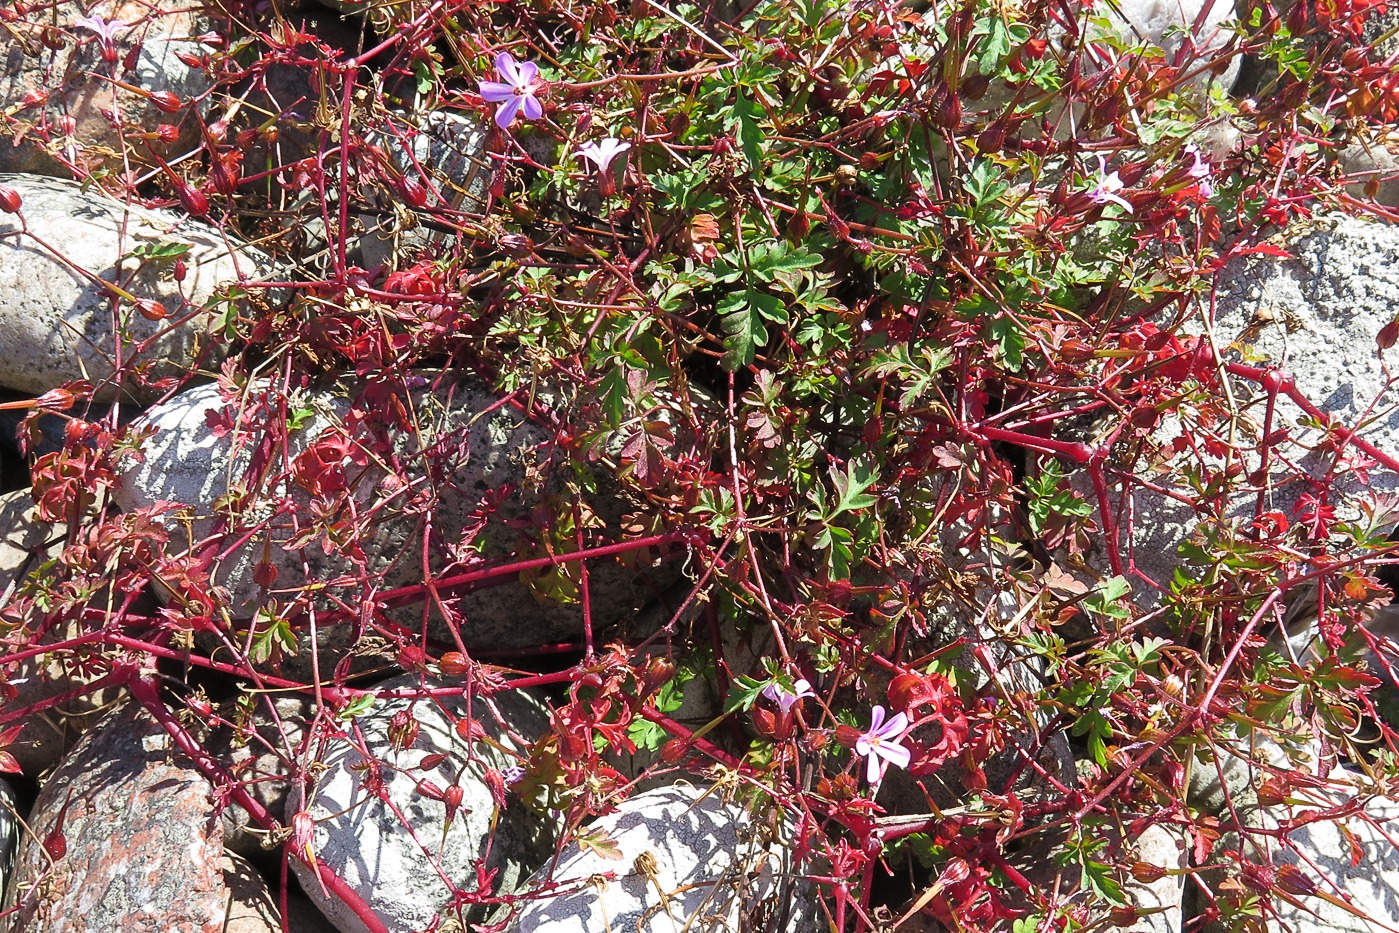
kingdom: Plantae
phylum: Tracheophyta
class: Magnoliopsida
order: Geraniales
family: Geraniaceae
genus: Geranium
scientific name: Geranium robertianum
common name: Stinkende storkenæb
